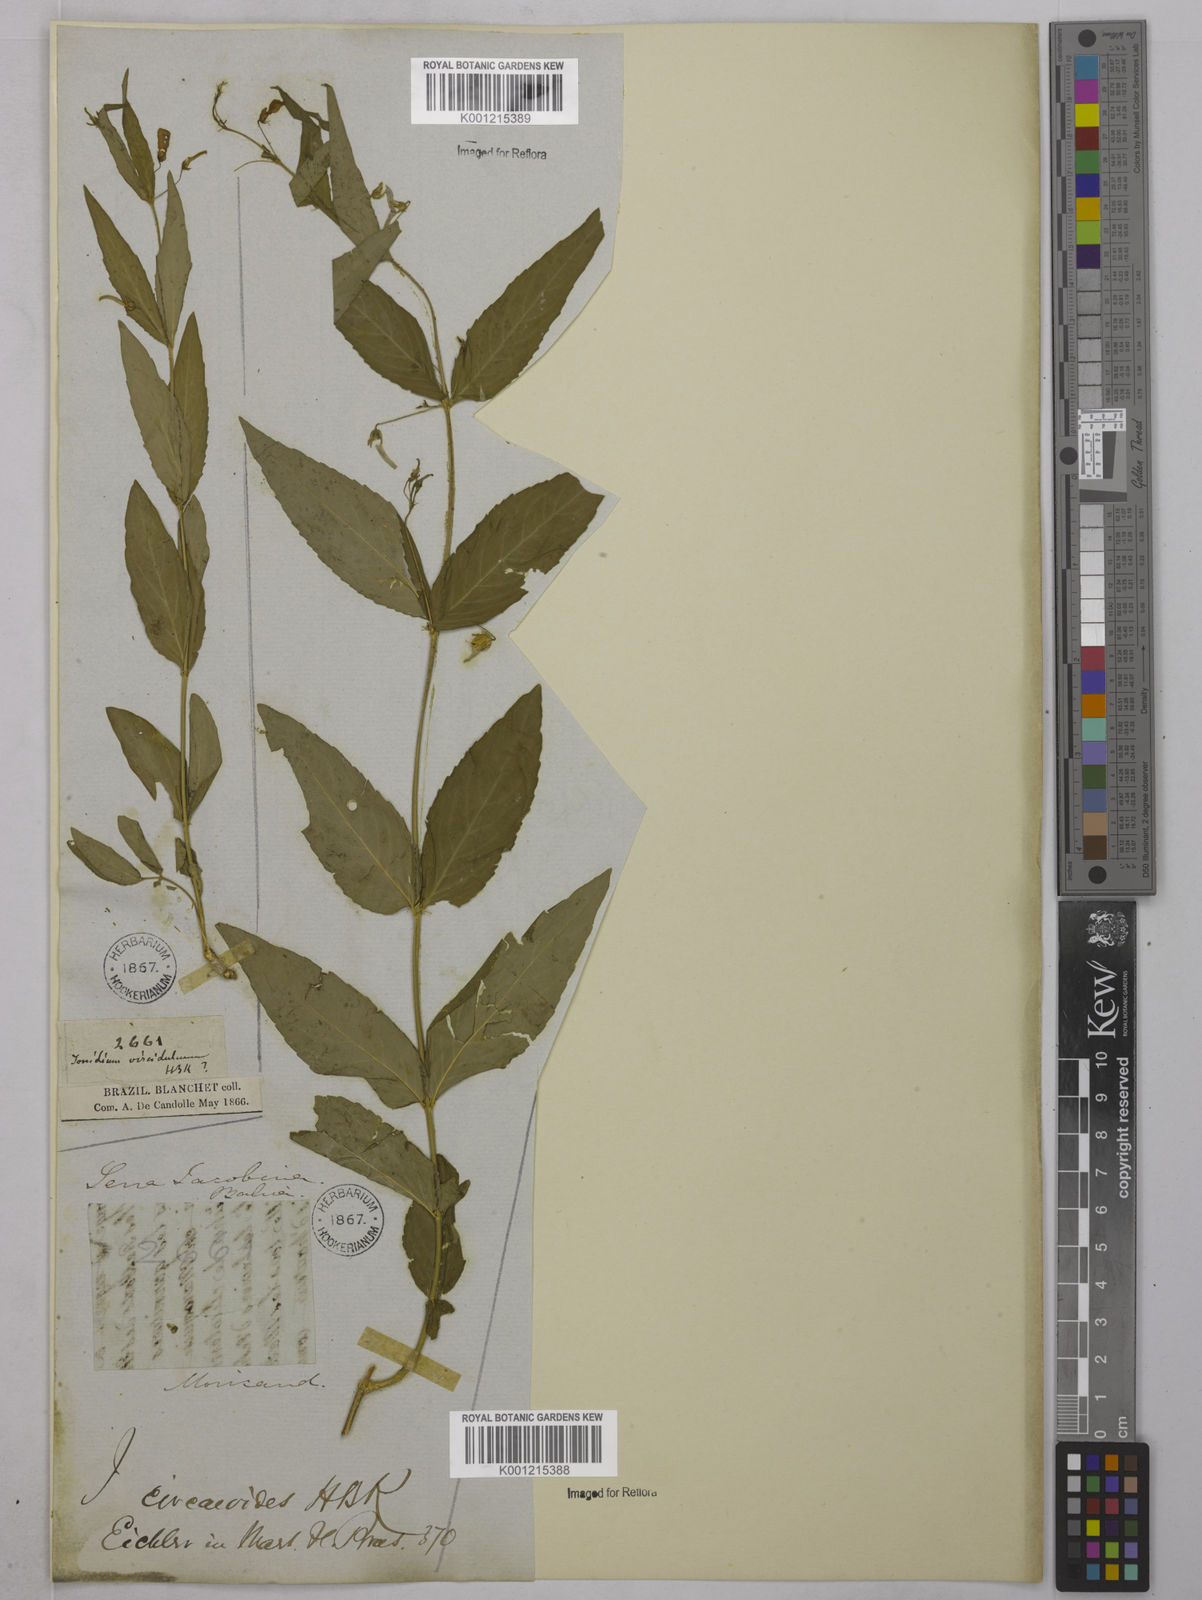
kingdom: Plantae
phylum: Tracheophyta
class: Magnoliopsida
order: Malpighiales
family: Violaceae
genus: Pombalia
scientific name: Pombalia oppositifolia
